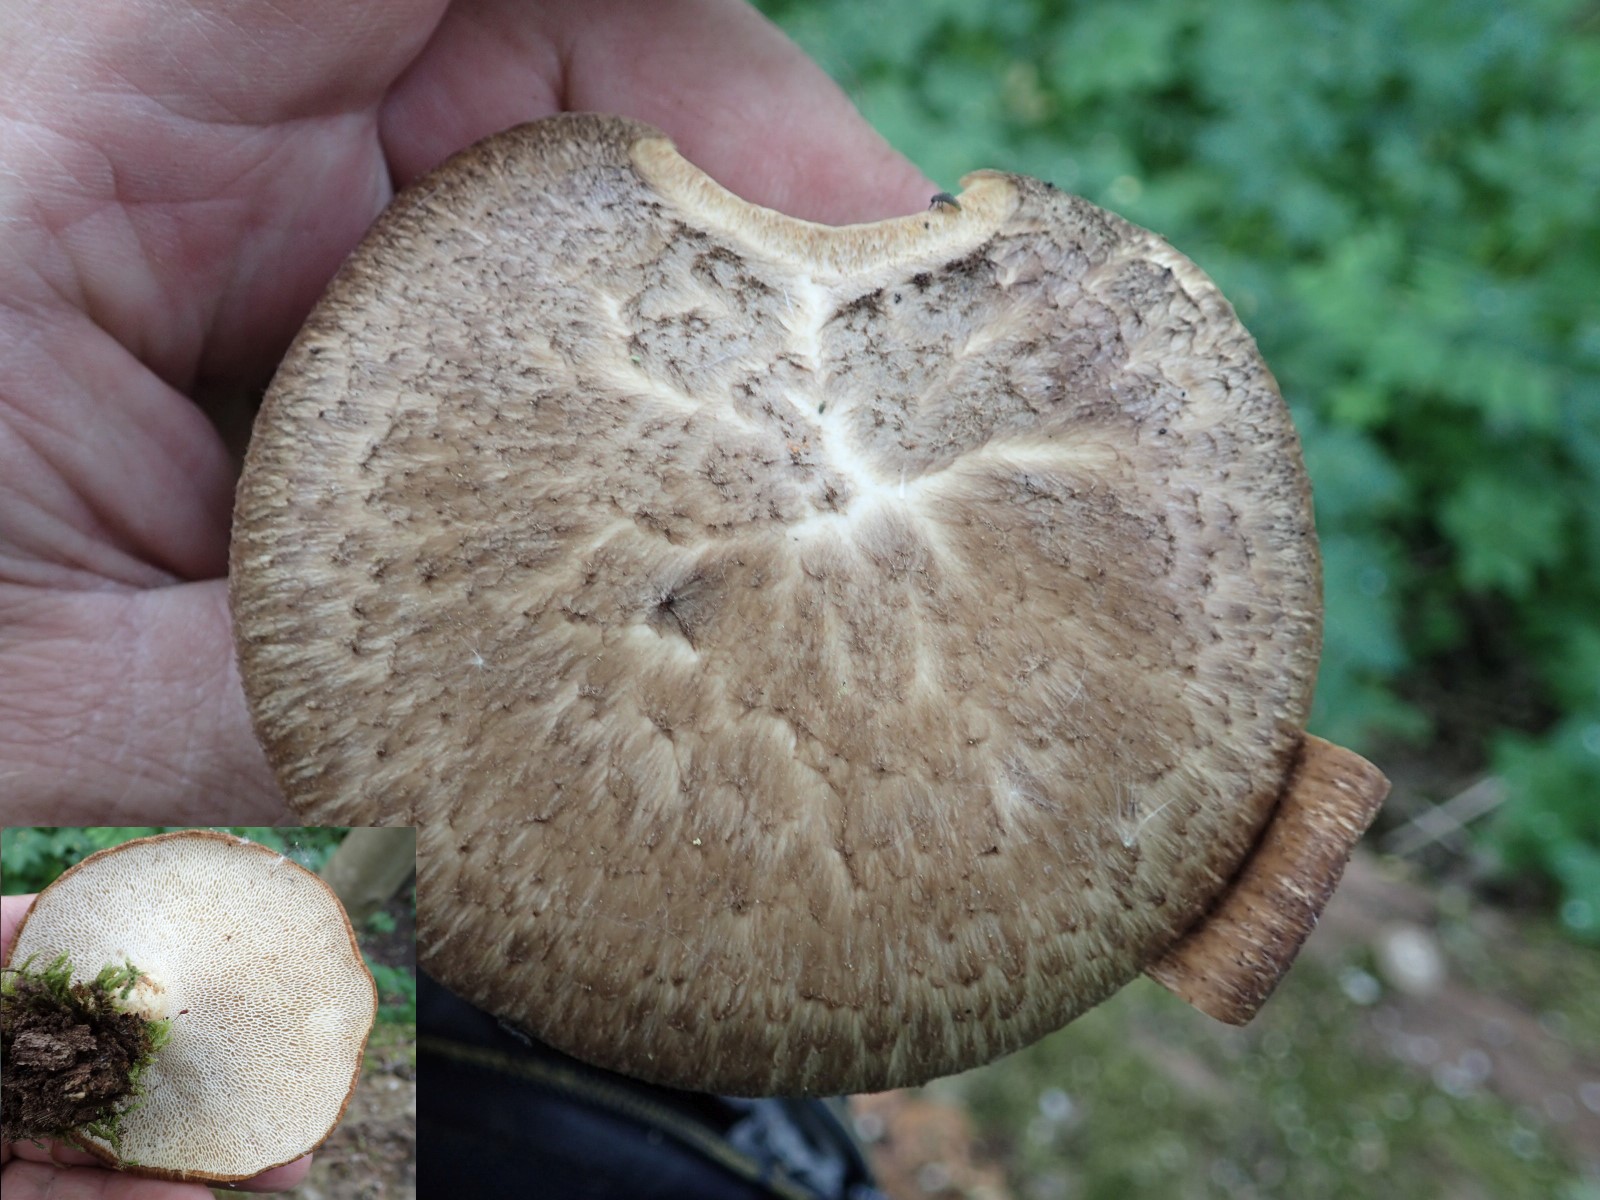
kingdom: Fungi
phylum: Basidiomycota
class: Agaricomycetes
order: Polyporales
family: Polyporaceae
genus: Cerioporus
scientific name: Cerioporus squamosus
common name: skællet stilkporesvamp
